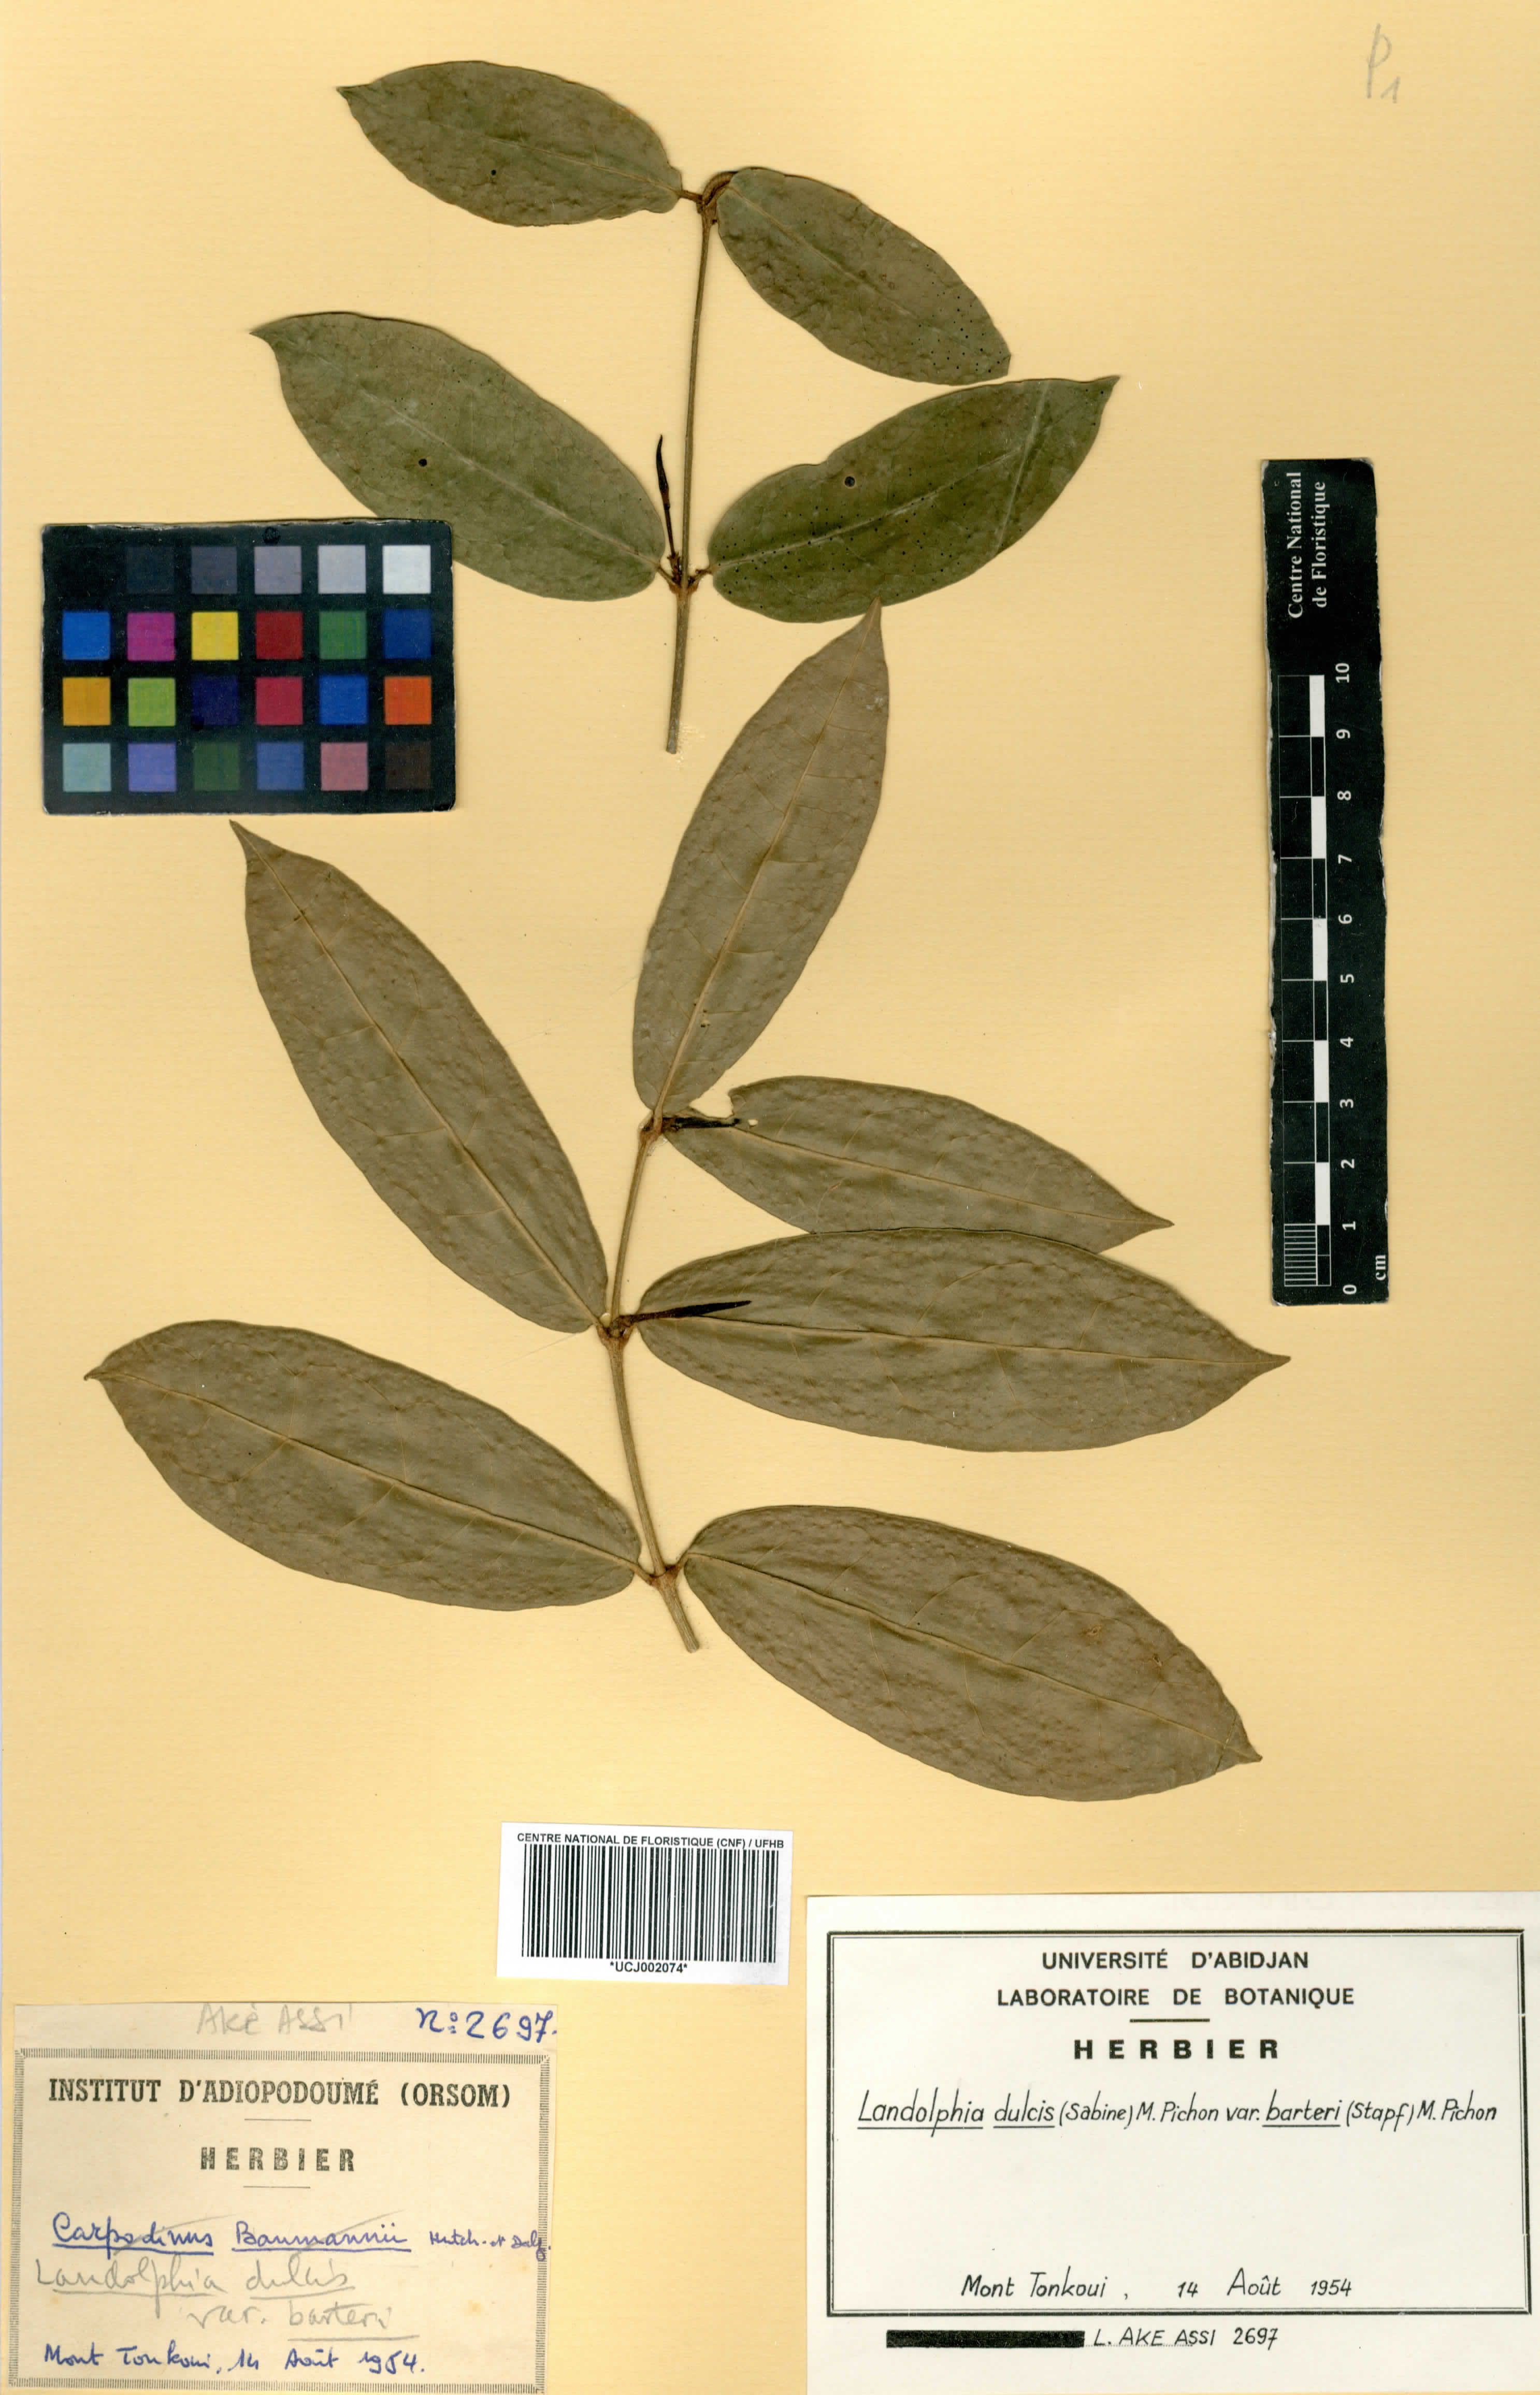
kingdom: Plantae
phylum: Tracheophyta
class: Magnoliopsida
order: Gentianales
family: Apocynaceae
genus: Landolphia
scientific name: Landolphia dulcis
